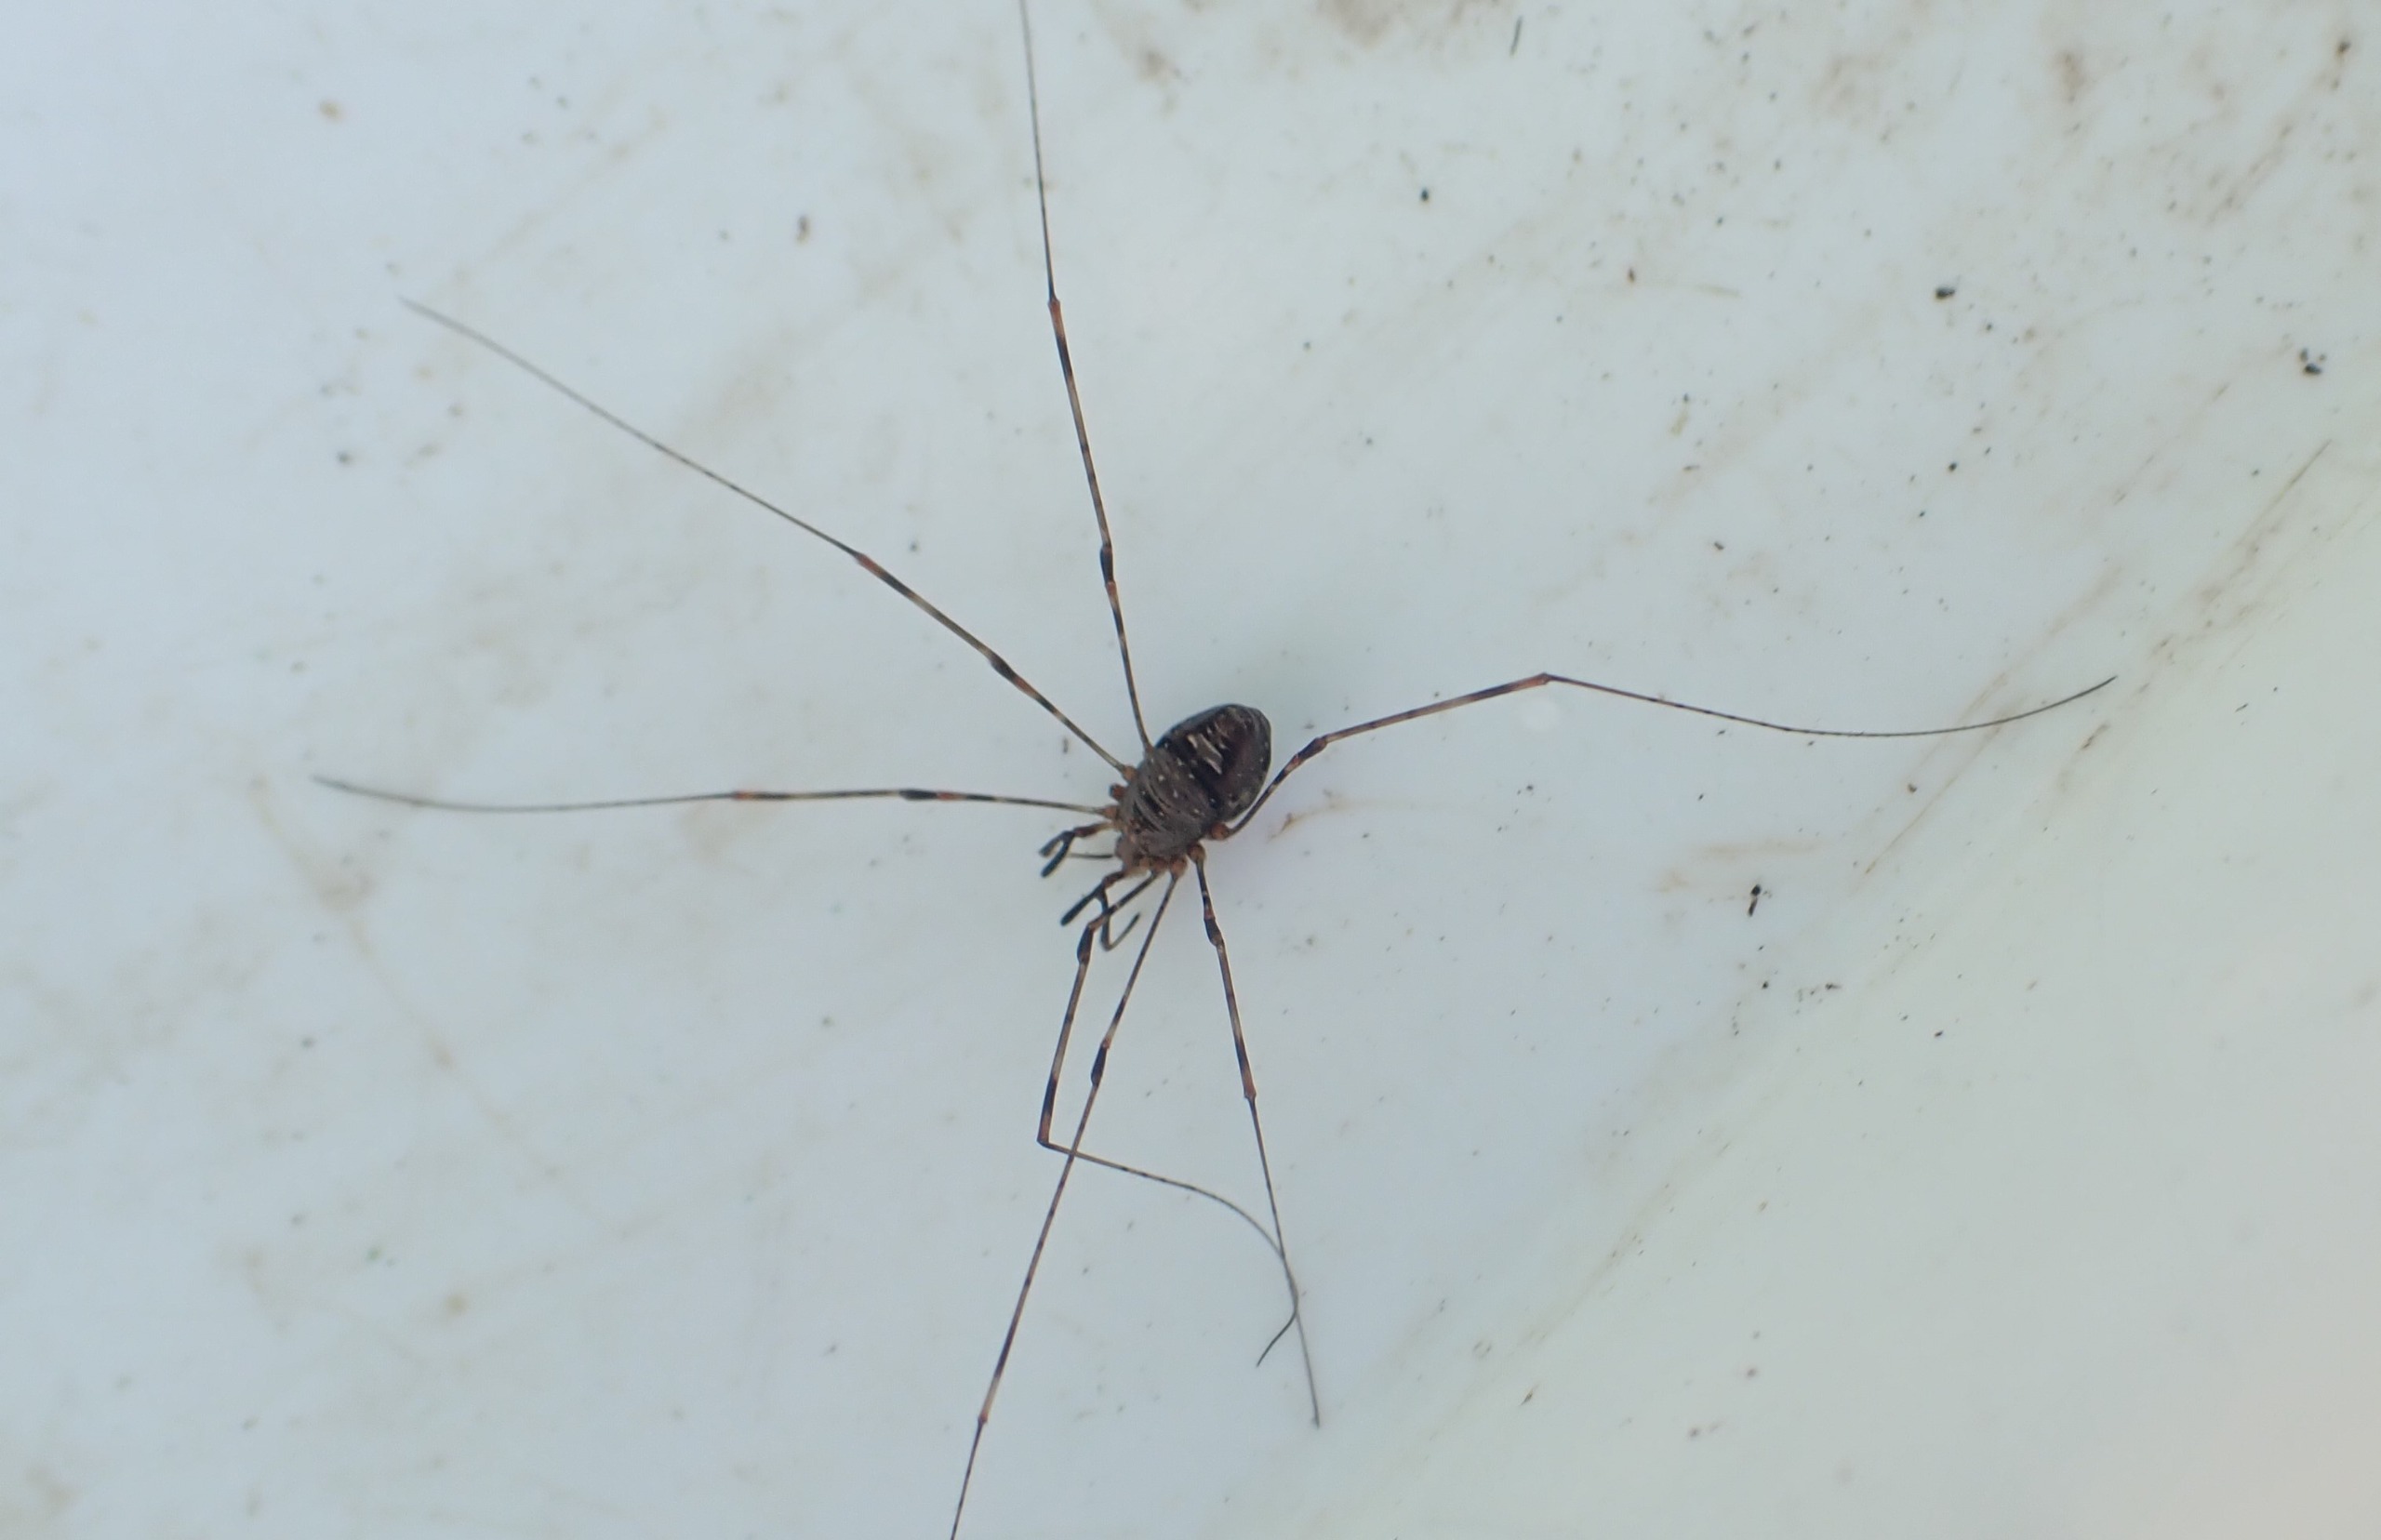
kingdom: Animalia
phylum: Arthropoda
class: Arachnida
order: Opiliones
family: Phalangiidae
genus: Dicranopalpus
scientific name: Dicranopalpus ramosus
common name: Gaffelmejer
